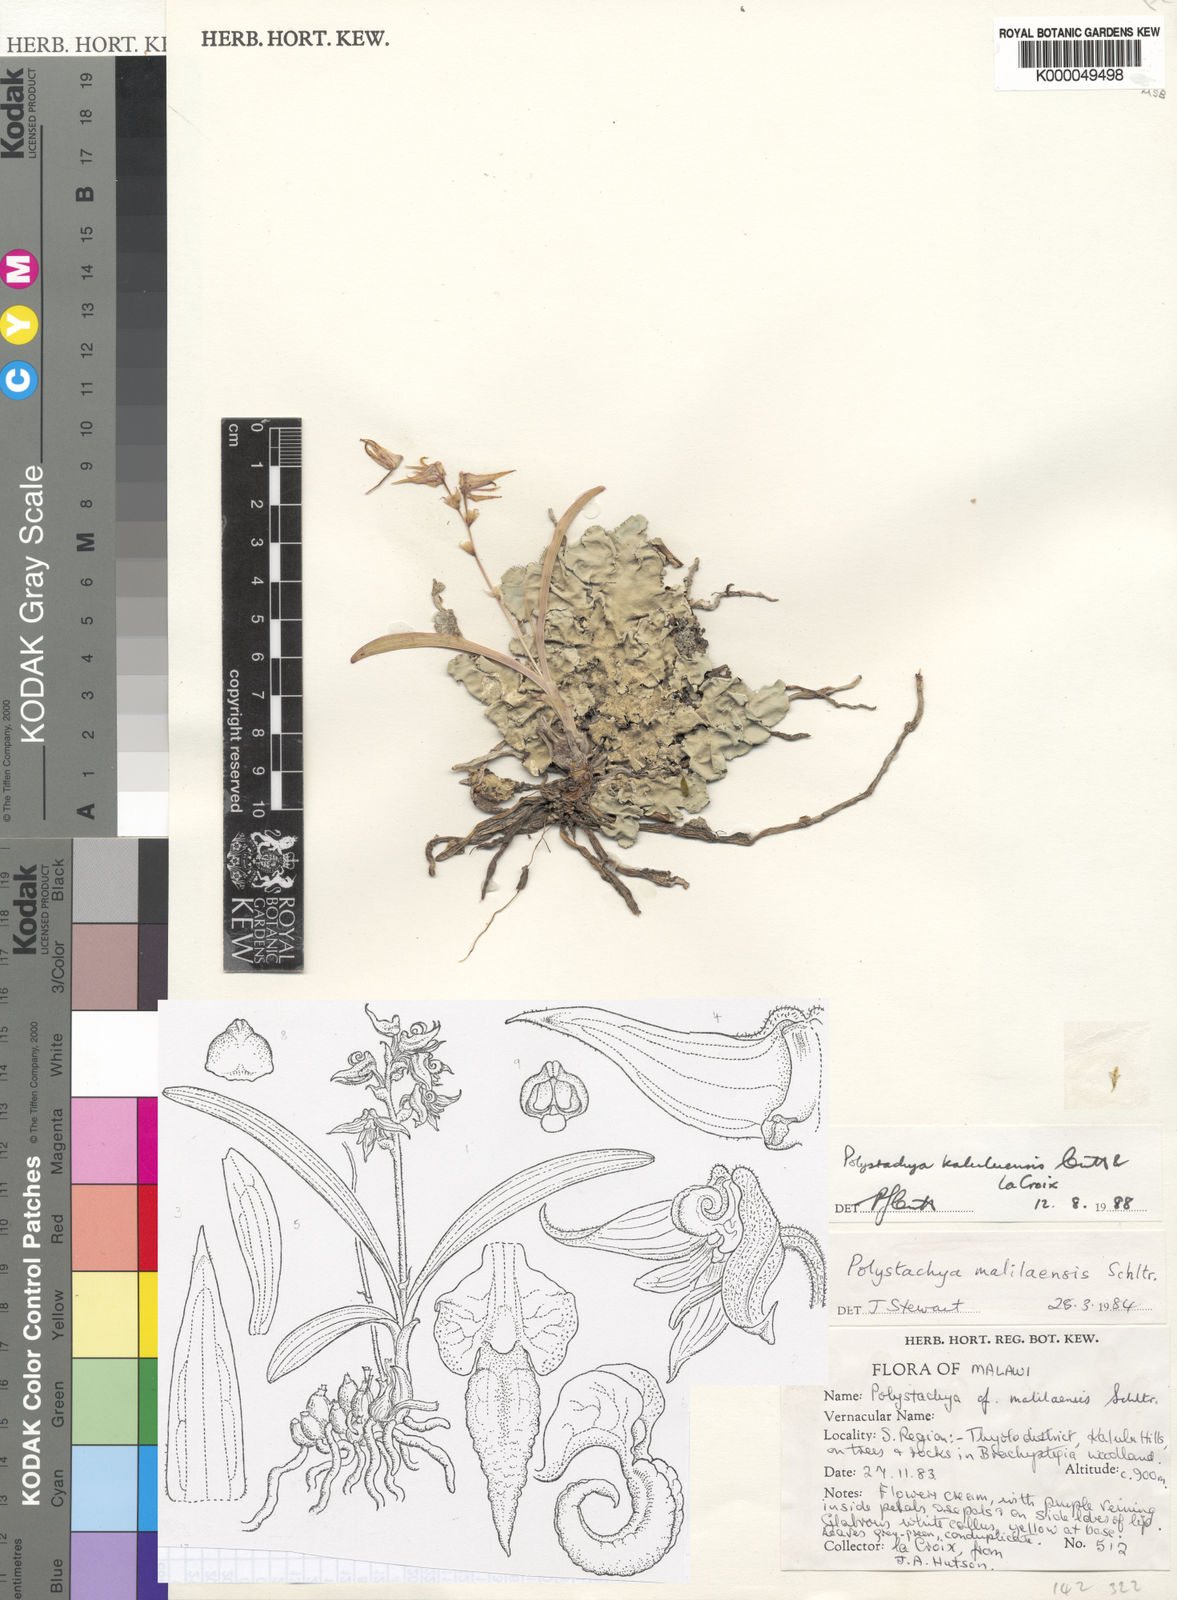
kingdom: Plantae
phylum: Tracheophyta
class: Liliopsida
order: Asparagales
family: Orchidaceae
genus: Polystachya
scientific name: Polystachya kaluluensis
